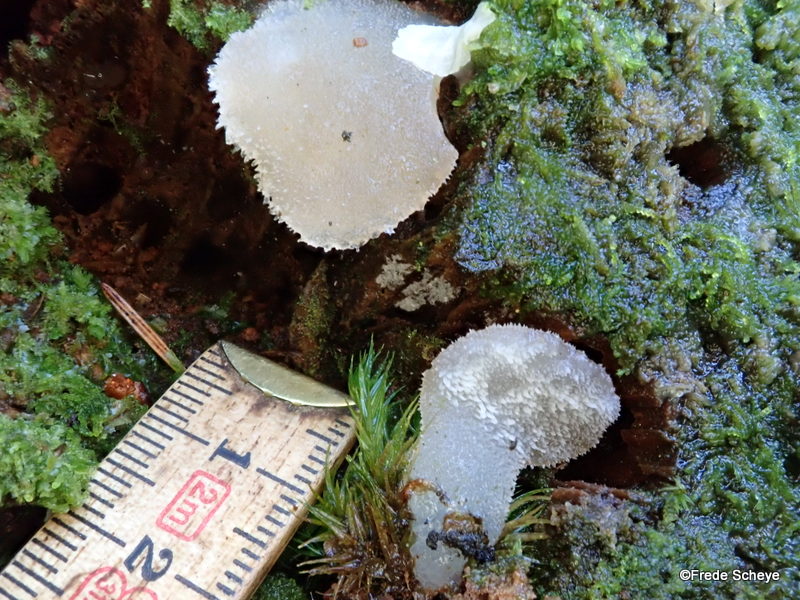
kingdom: Fungi
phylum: Basidiomycota
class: Agaricomycetes
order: Auriculariales
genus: Pseudohydnum
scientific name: Pseudohydnum gelatinosum
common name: bævretand
